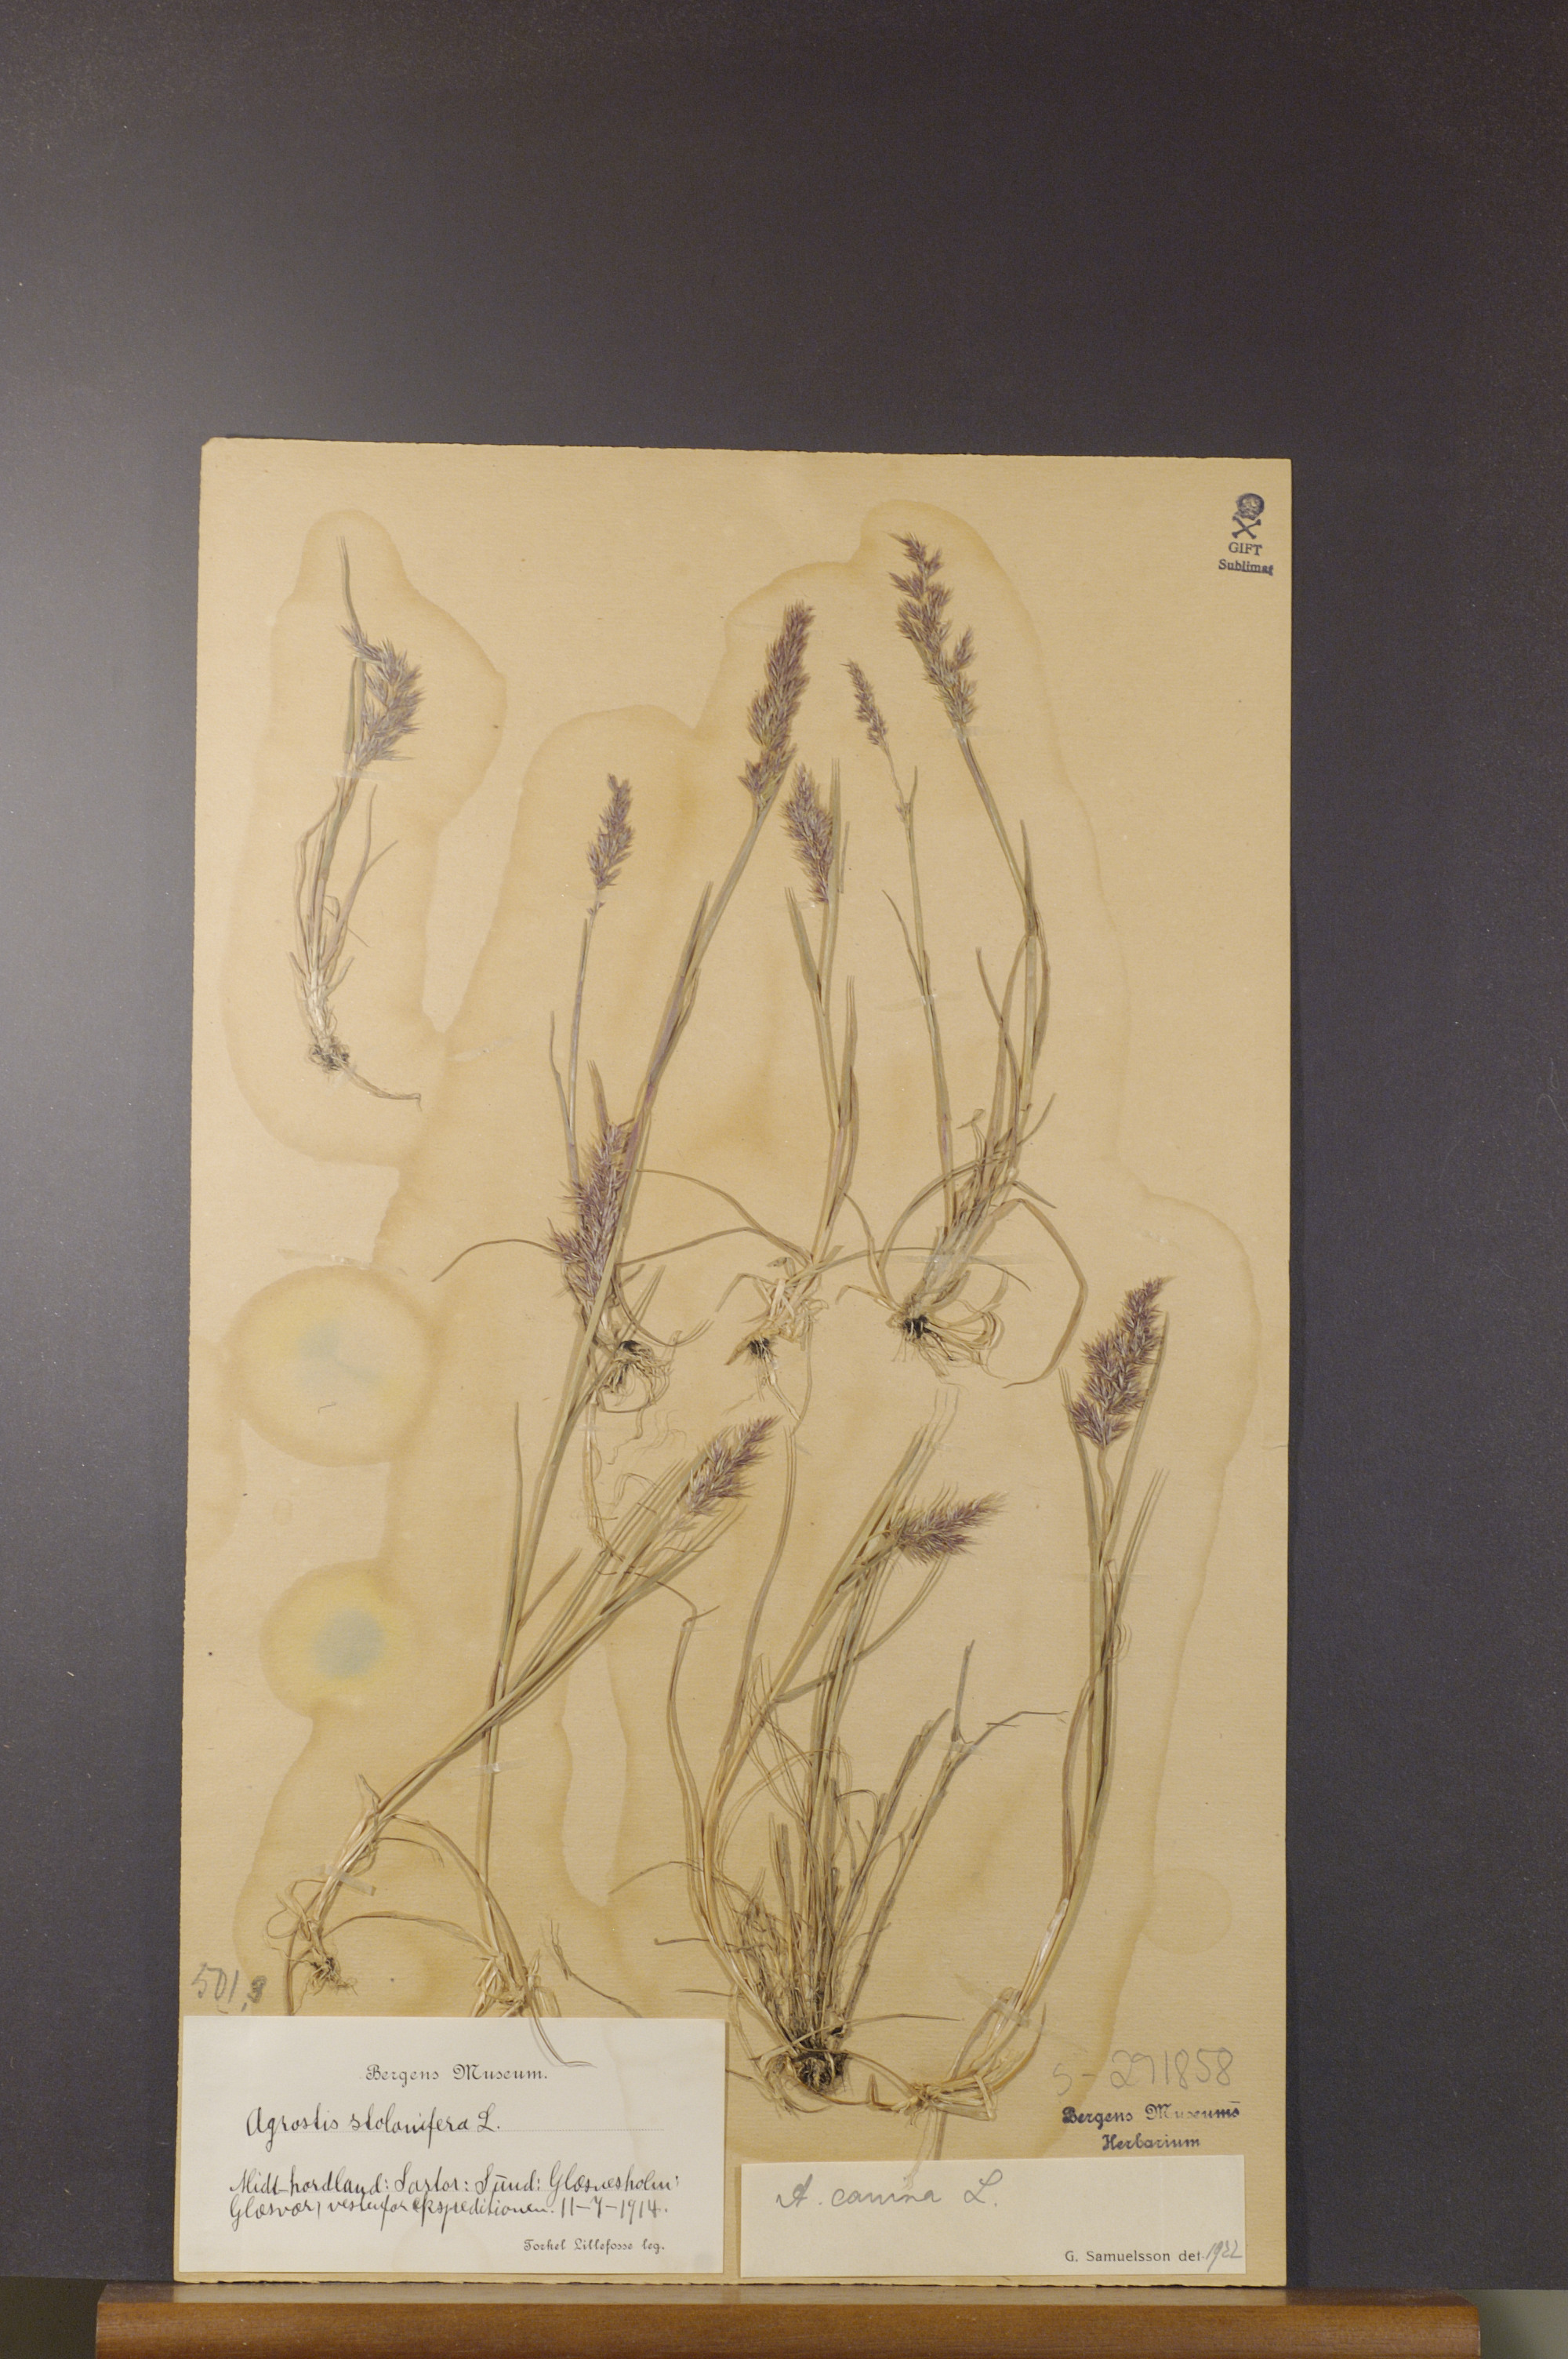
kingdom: Plantae
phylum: Tracheophyta
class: Liliopsida
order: Poales
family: Poaceae
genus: Agrostis
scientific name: Agrostis canina
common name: Velvet bent
